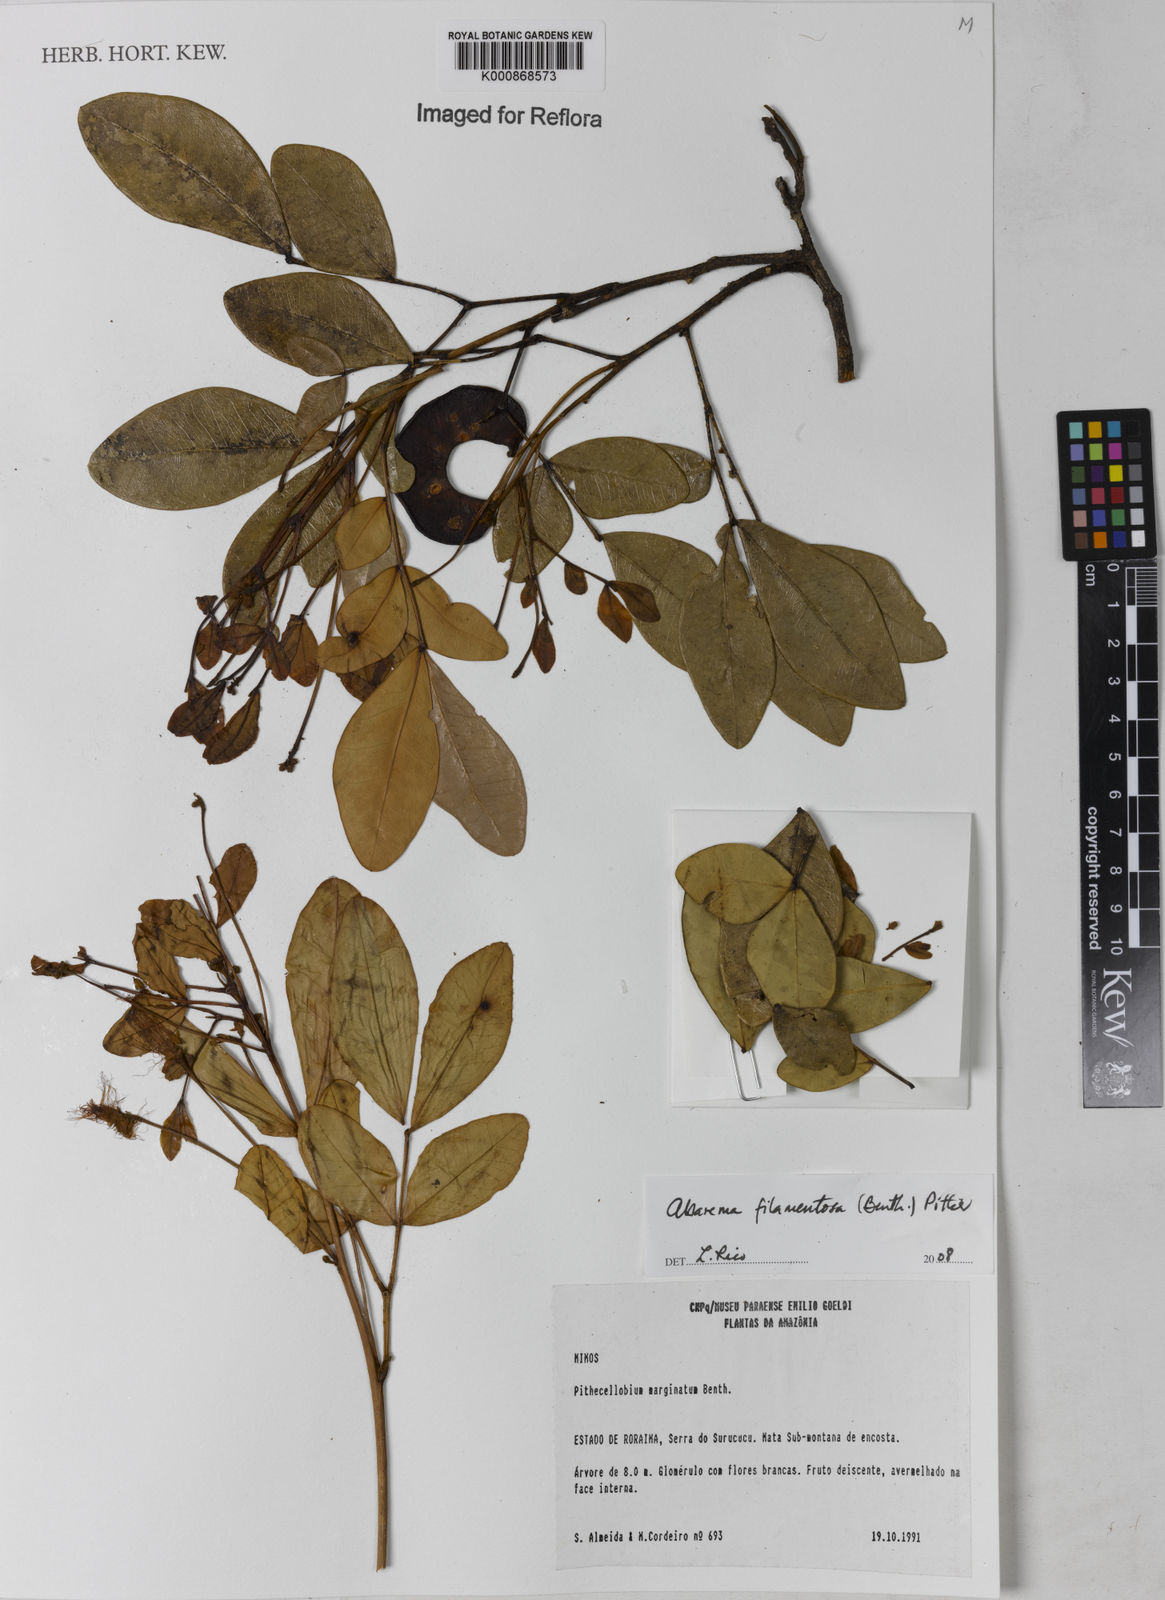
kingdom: Plantae
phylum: Tracheophyta
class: Magnoliopsida
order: Fabales
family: Fabaceae
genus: Jupunba
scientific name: Jupunba filamentosa
